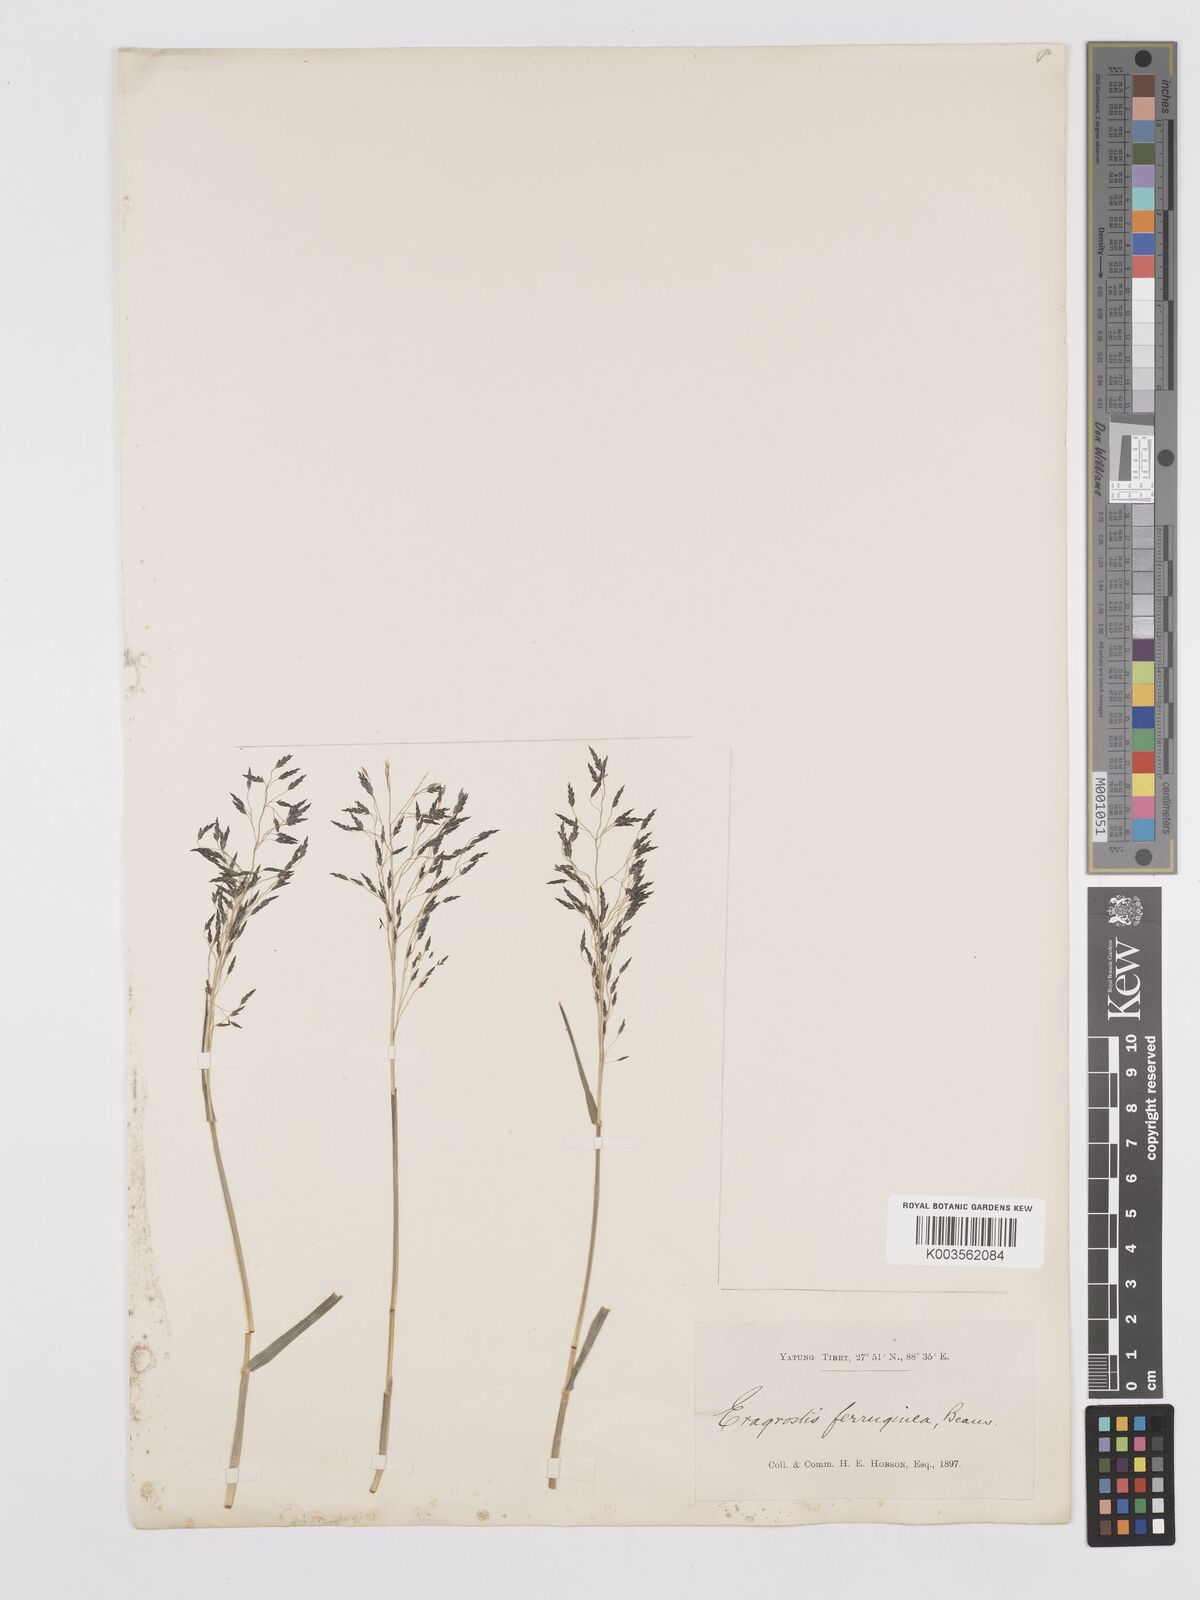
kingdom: Plantae
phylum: Tracheophyta
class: Liliopsida
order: Poales
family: Poaceae
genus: Eragrostis
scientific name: Eragrostis ferruginea
